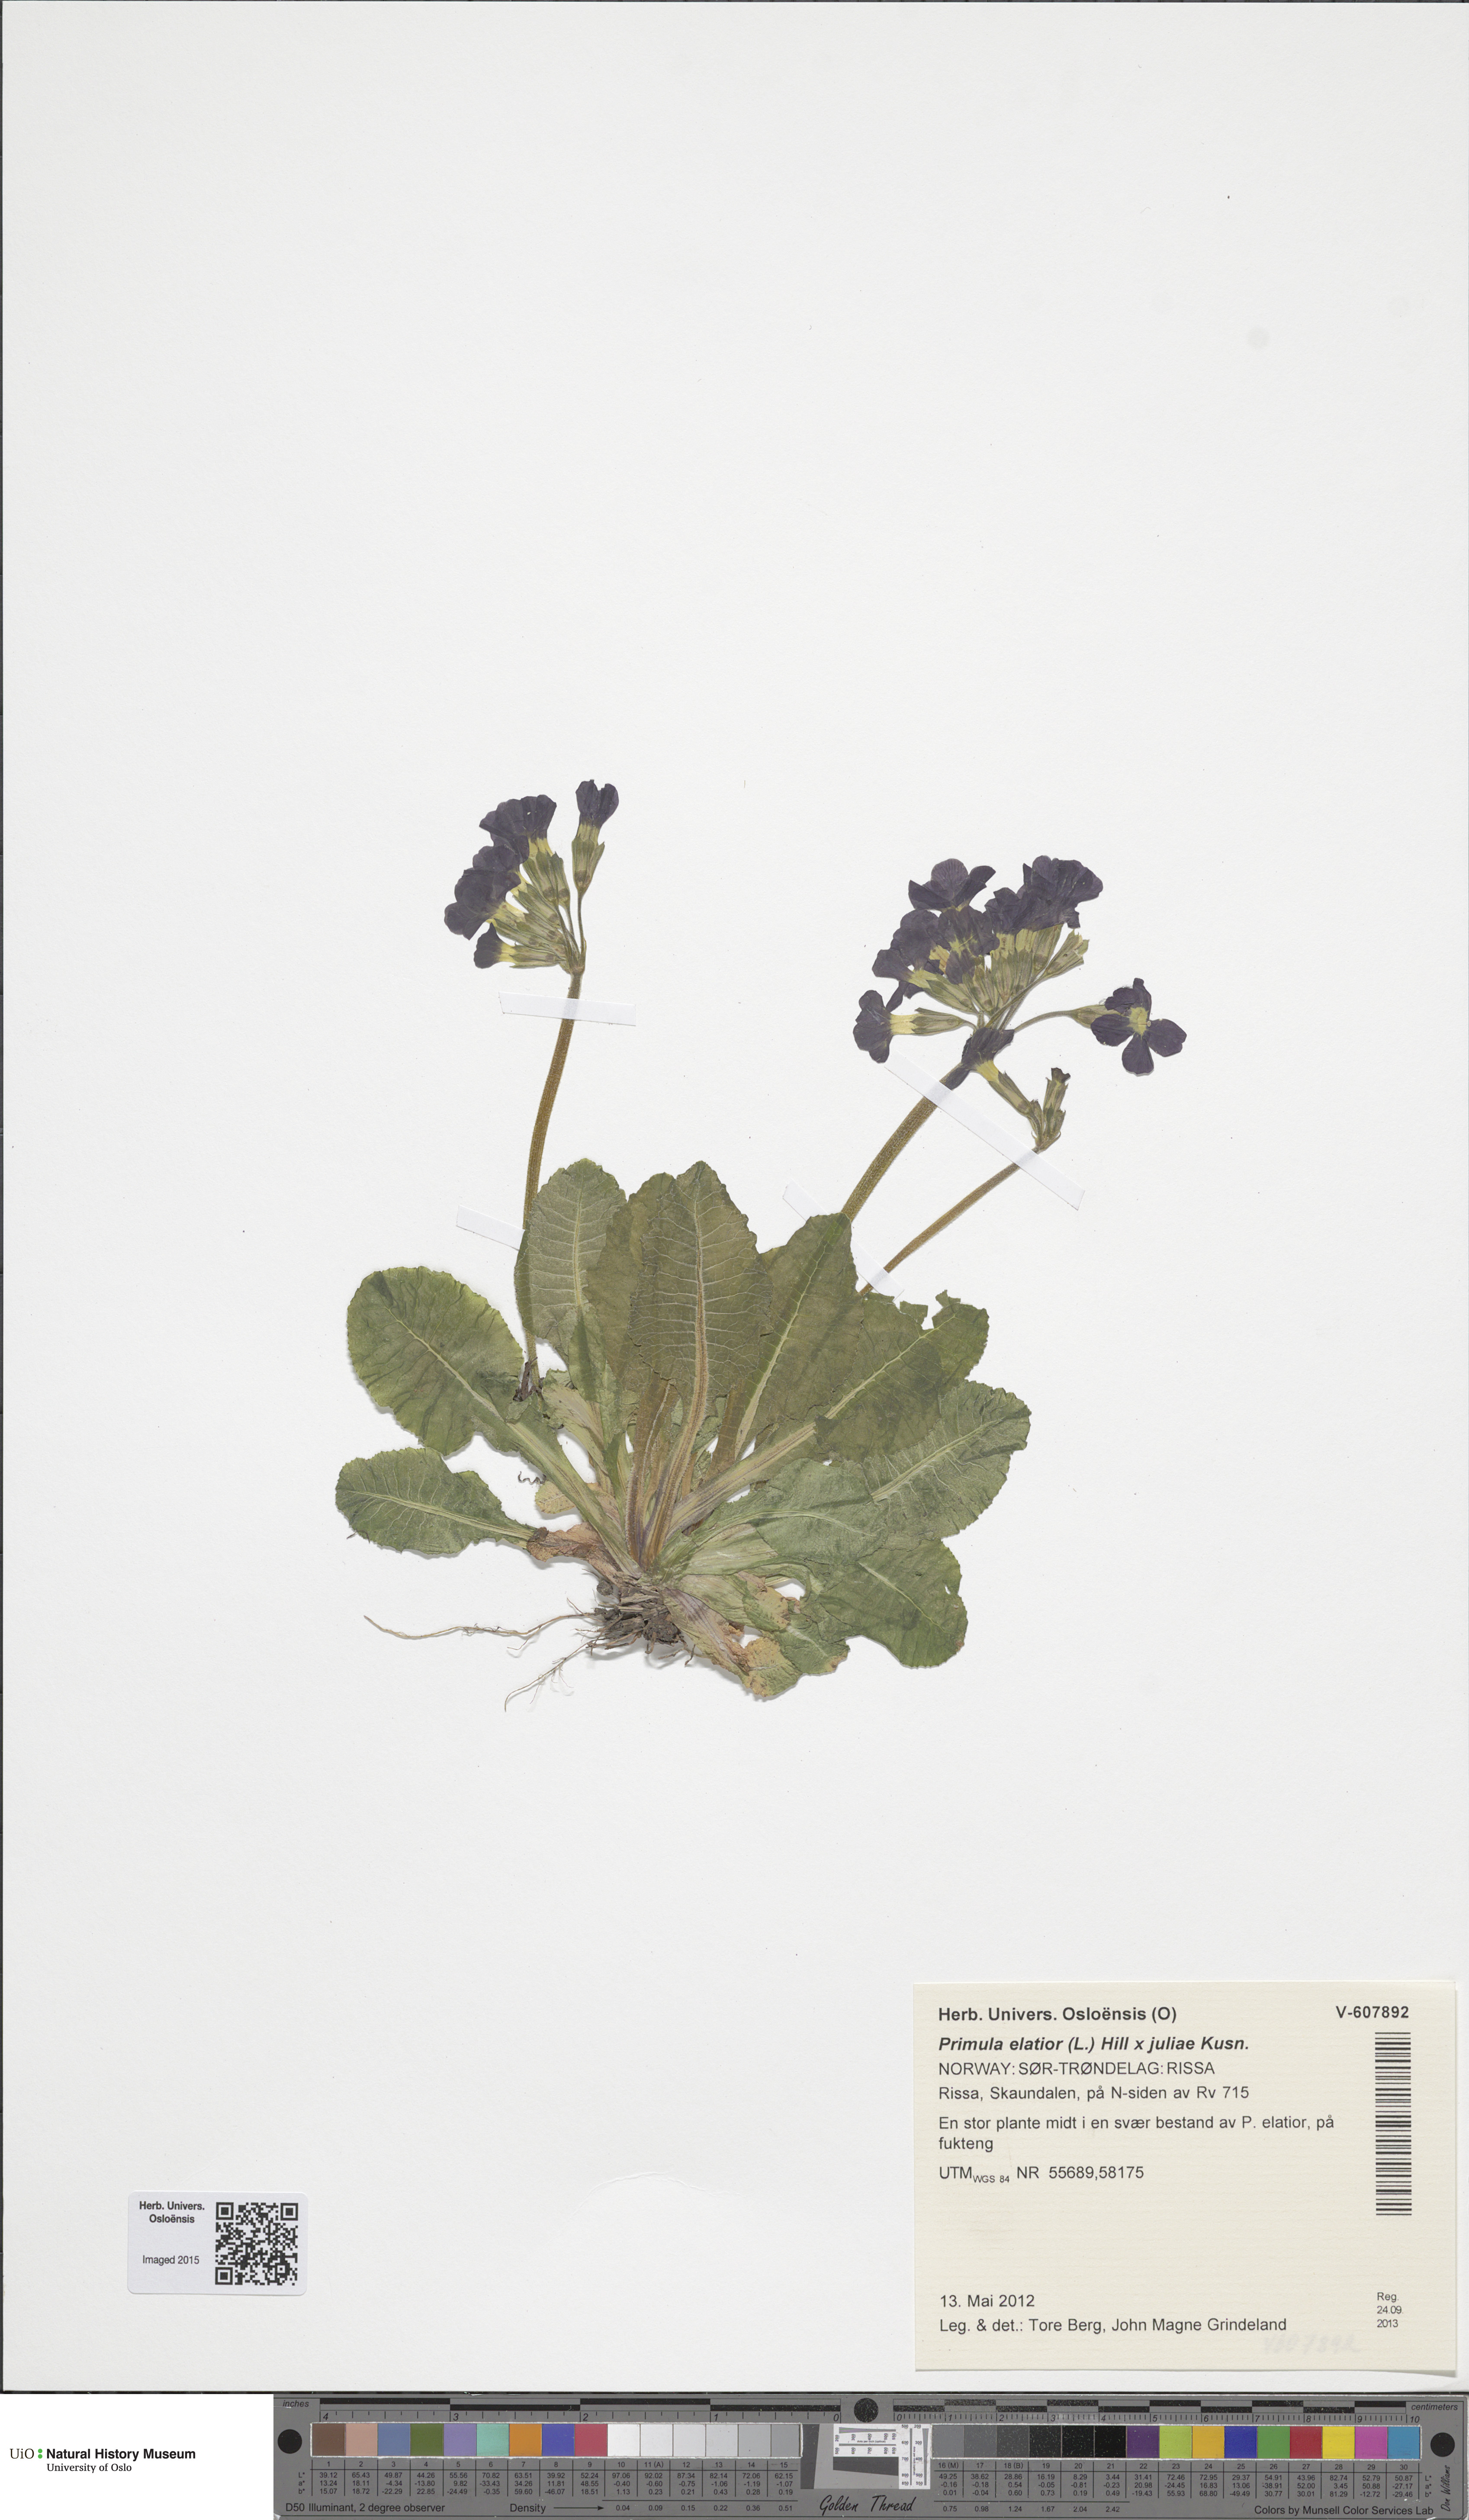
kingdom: Plantae
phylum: Tracheophyta
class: Magnoliopsida
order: Ericales
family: Primulaceae
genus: Primula
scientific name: Primula
